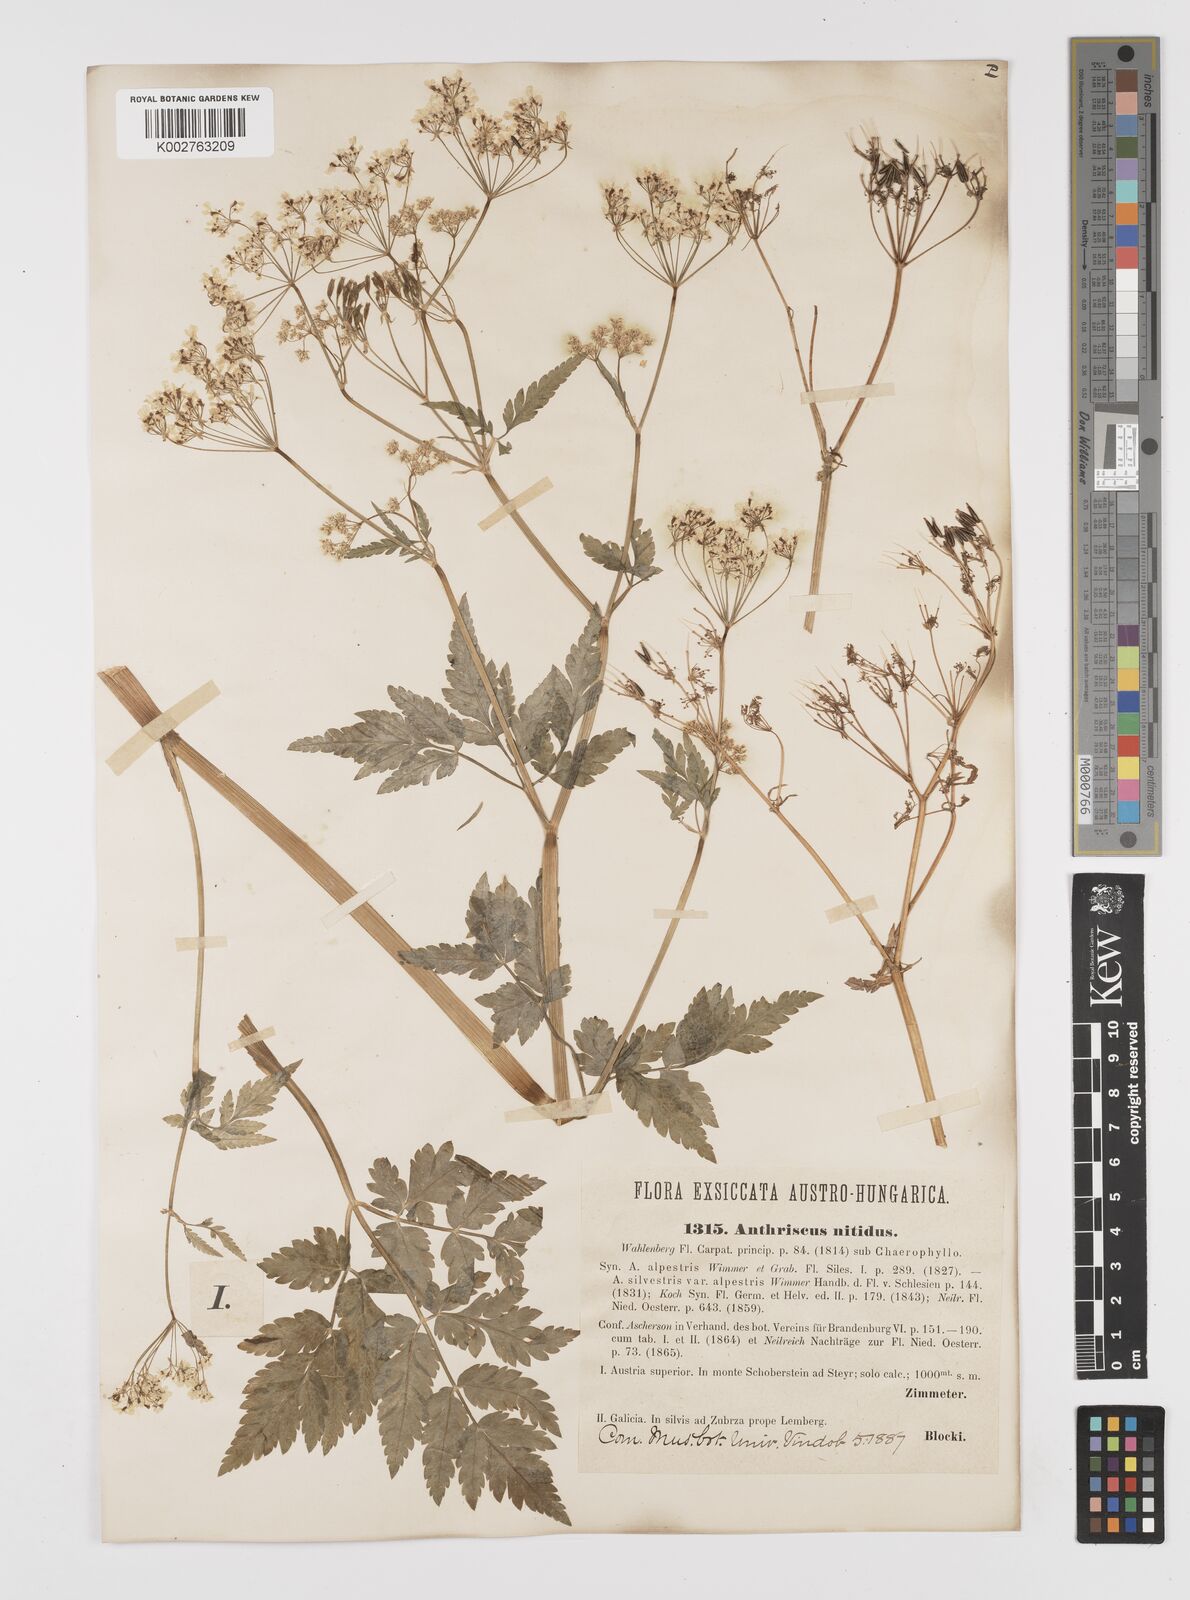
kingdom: Plantae
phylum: Tracheophyta
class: Magnoliopsida
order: Apiales
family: Apiaceae
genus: Anthriscus
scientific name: Anthriscus nitida
